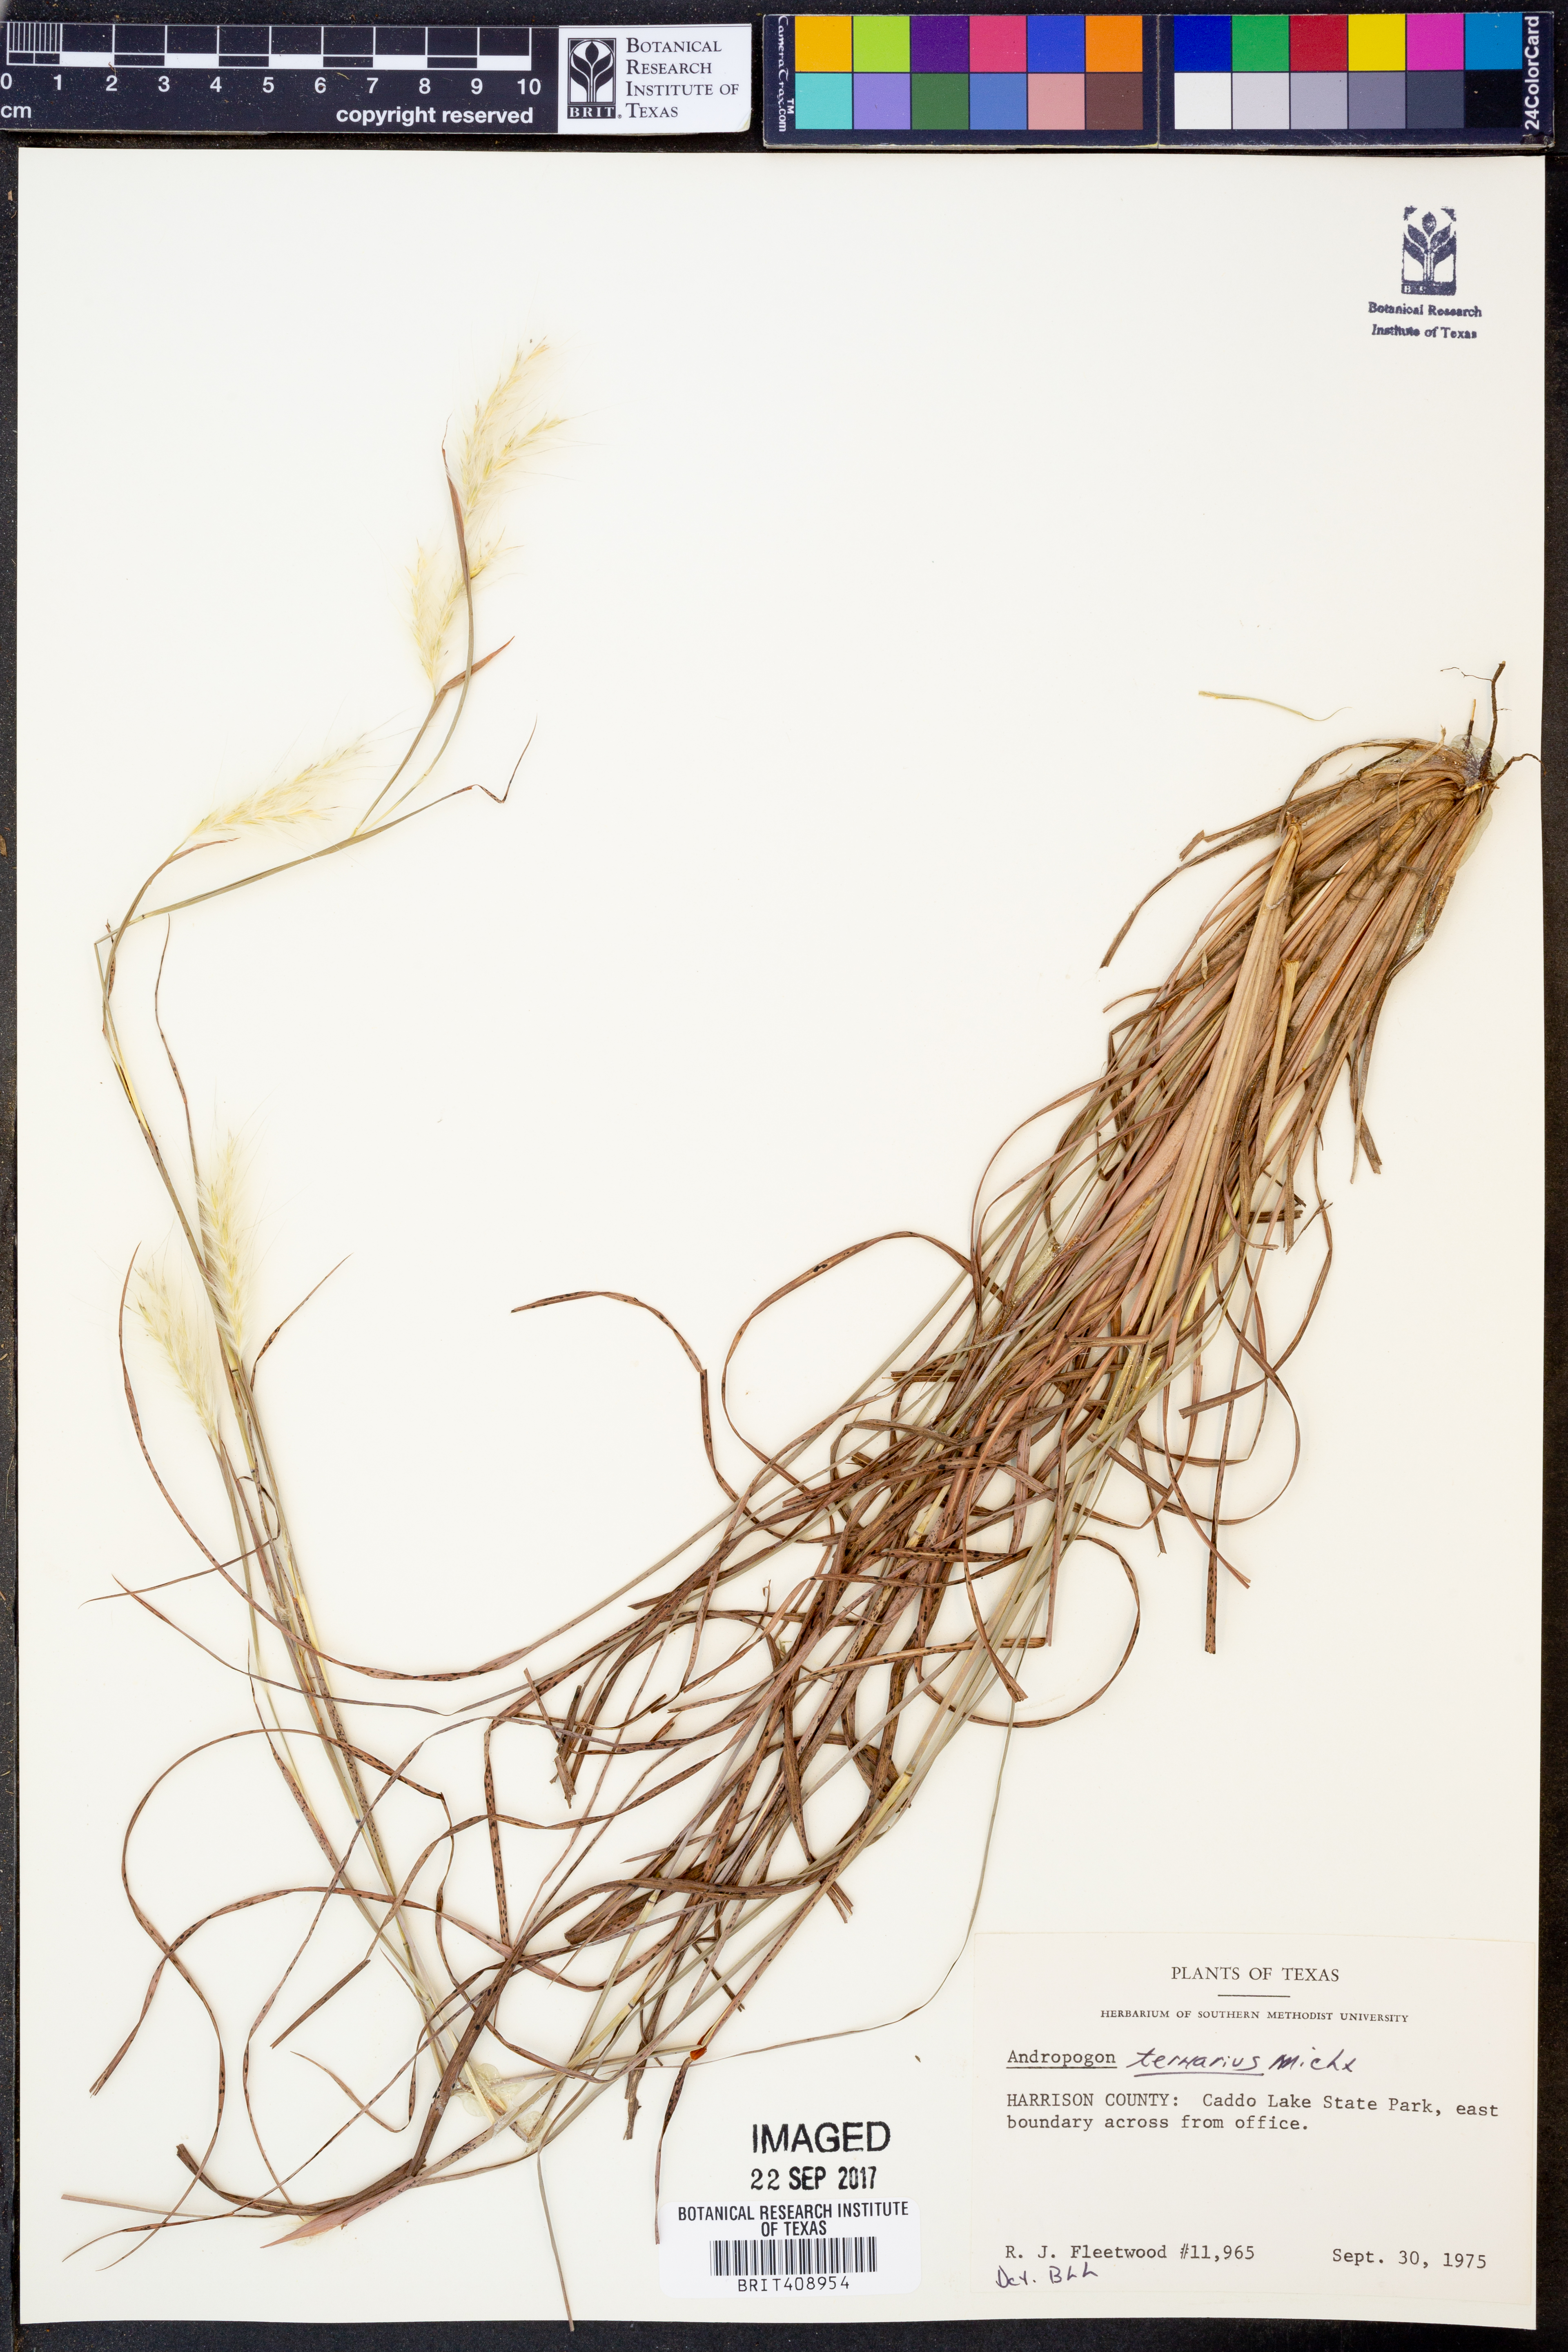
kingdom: Plantae
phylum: Tracheophyta
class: Liliopsida
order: Poales
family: Poaceae
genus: Andropogon
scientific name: Andropogon ternarius
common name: Split bluestem
